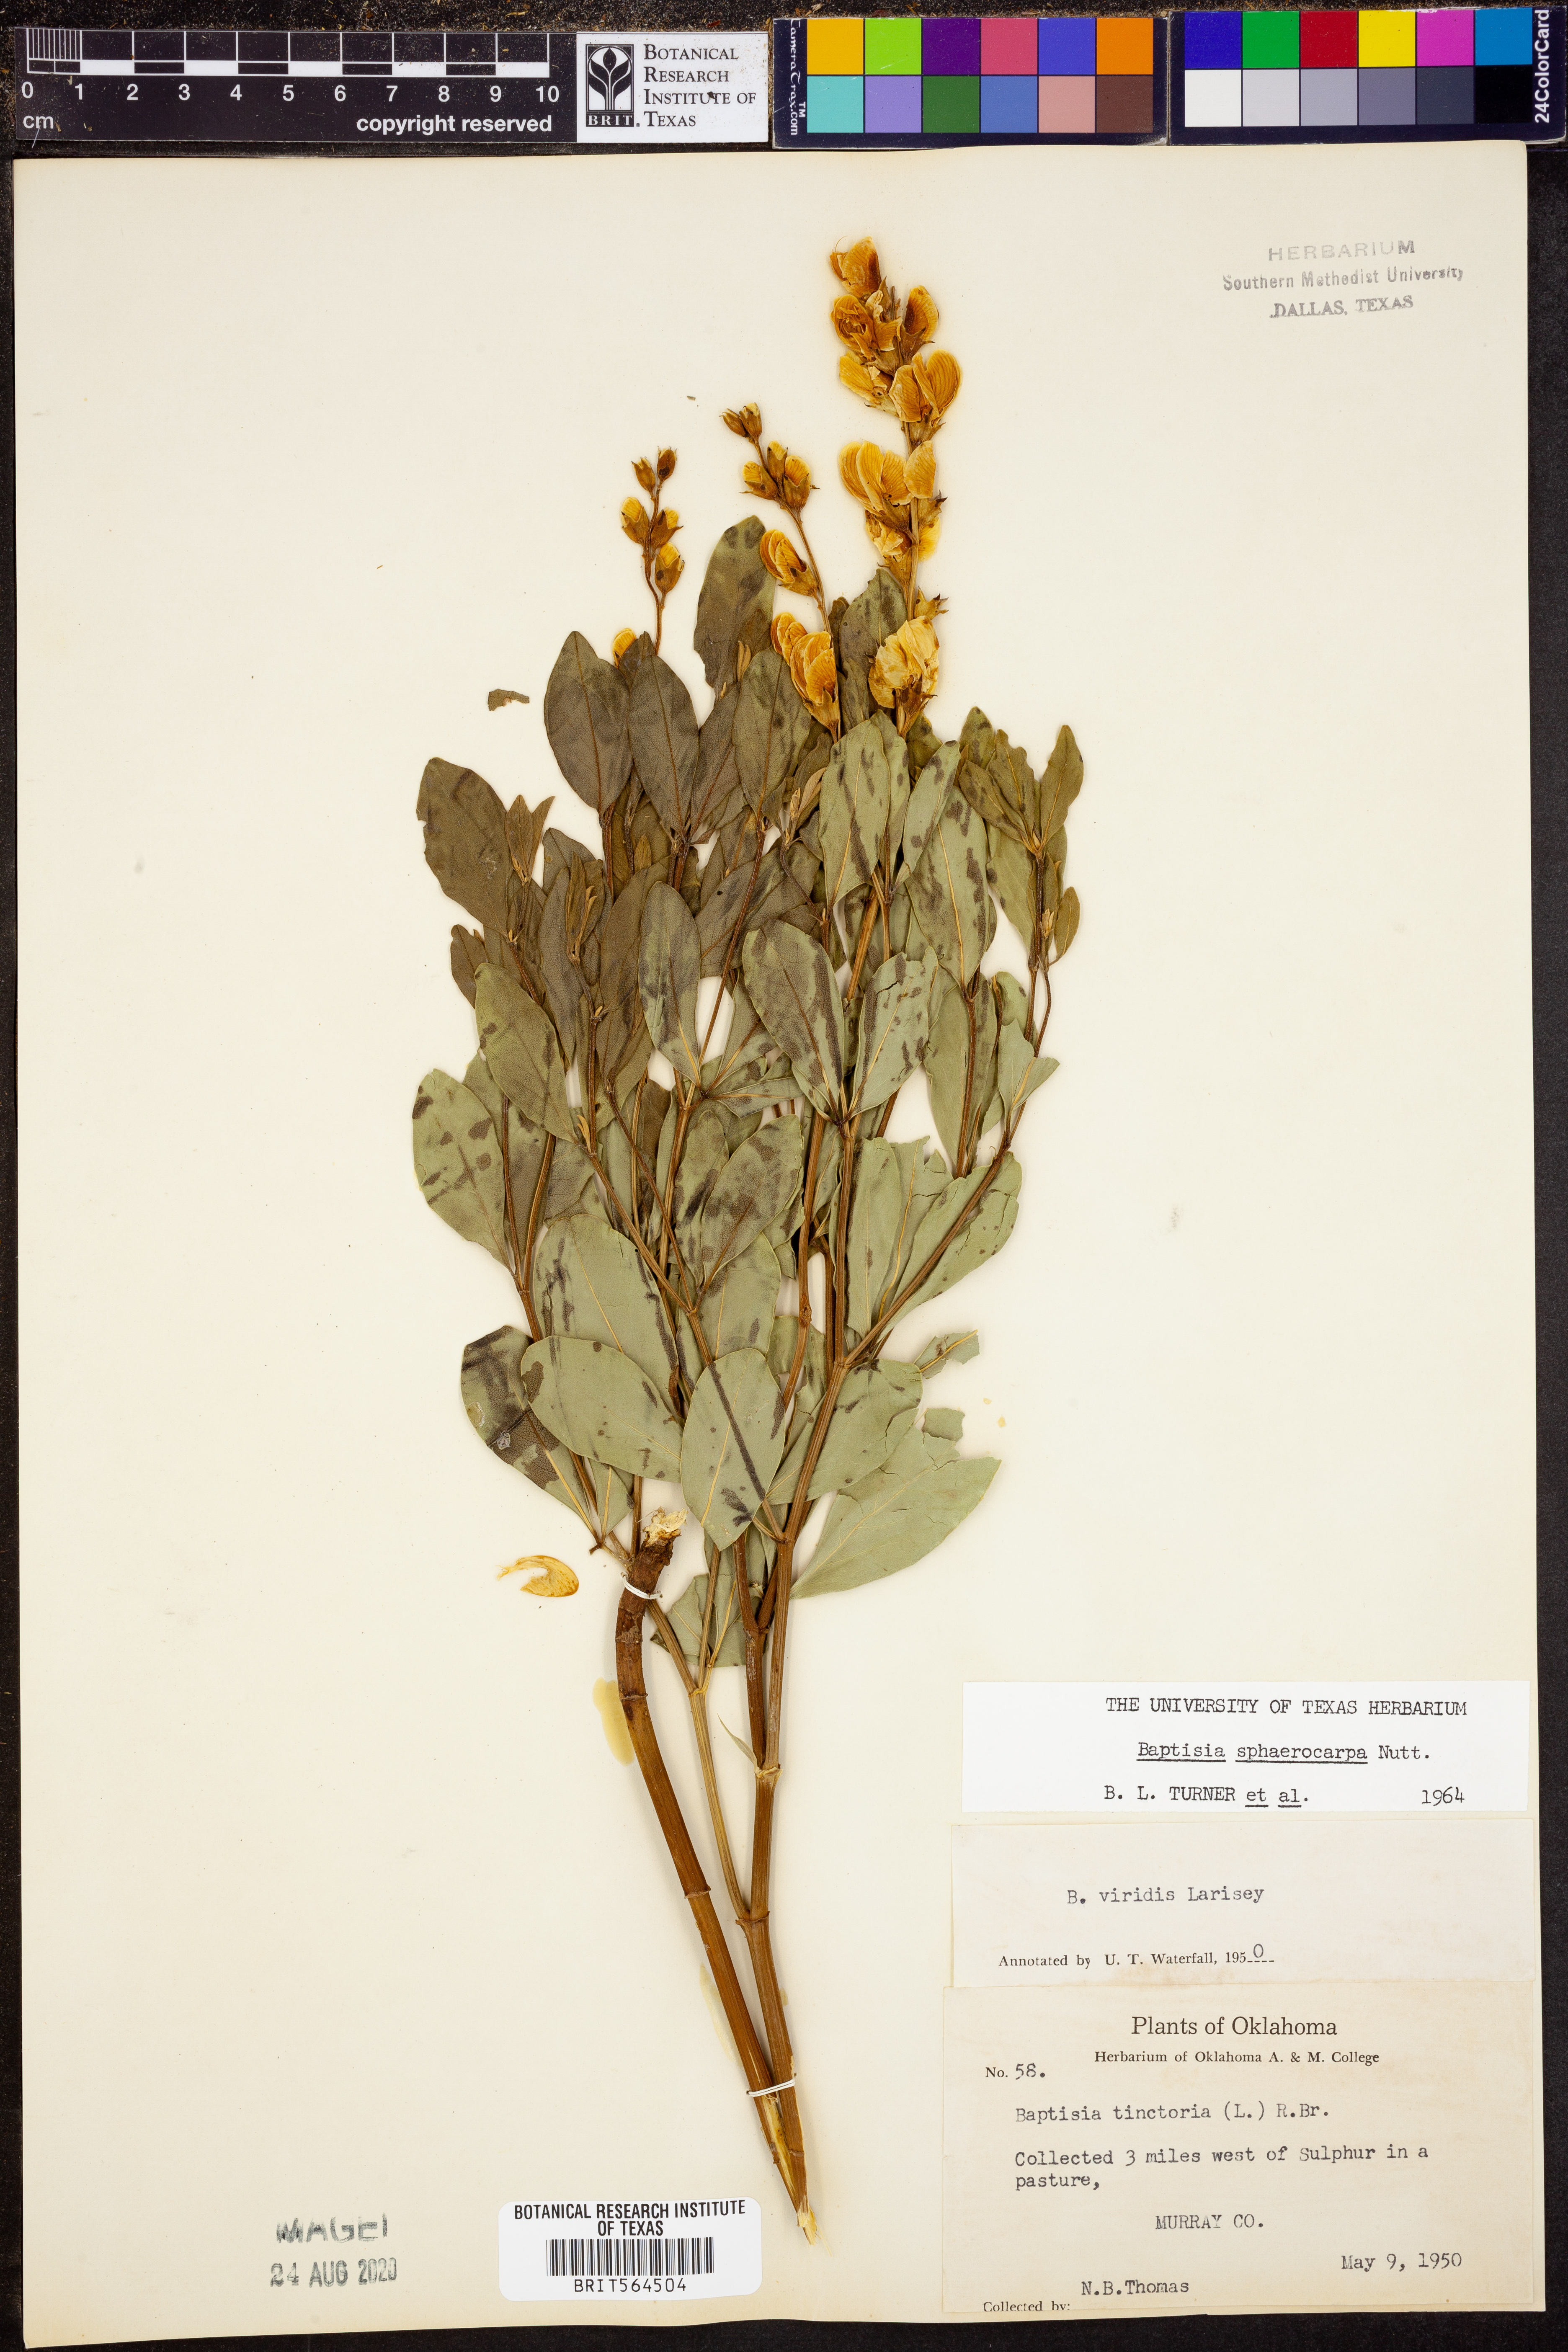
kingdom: Plantae
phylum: Tracheophyta
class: Magnoliopsida
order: Fabales
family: Fabaceae
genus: Baptisia
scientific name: Baptisia sphaerocarpa
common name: Round wild indigo
